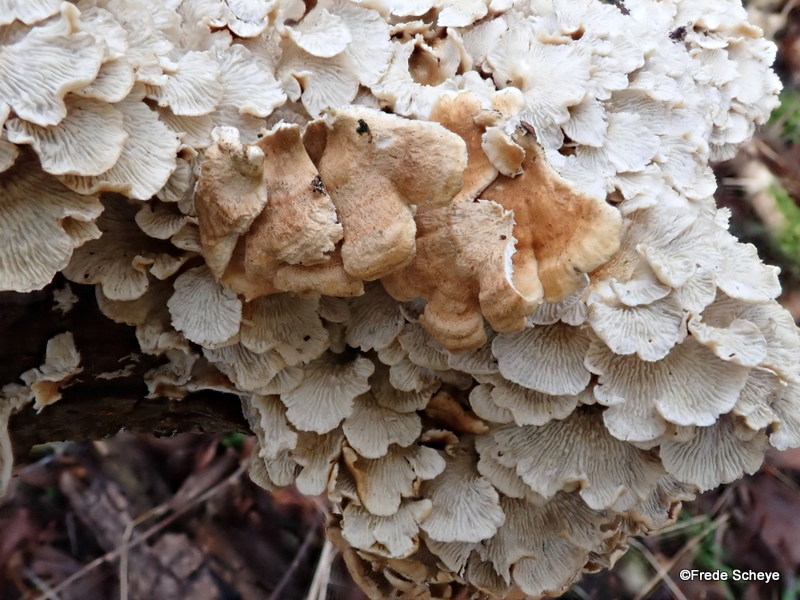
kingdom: Fungi
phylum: Basidiomycota
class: Agaricomycetes
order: Amylocorticiales
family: Amylocorticiaceae
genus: Plicaturopsis
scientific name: Plicaturopsis crispa
